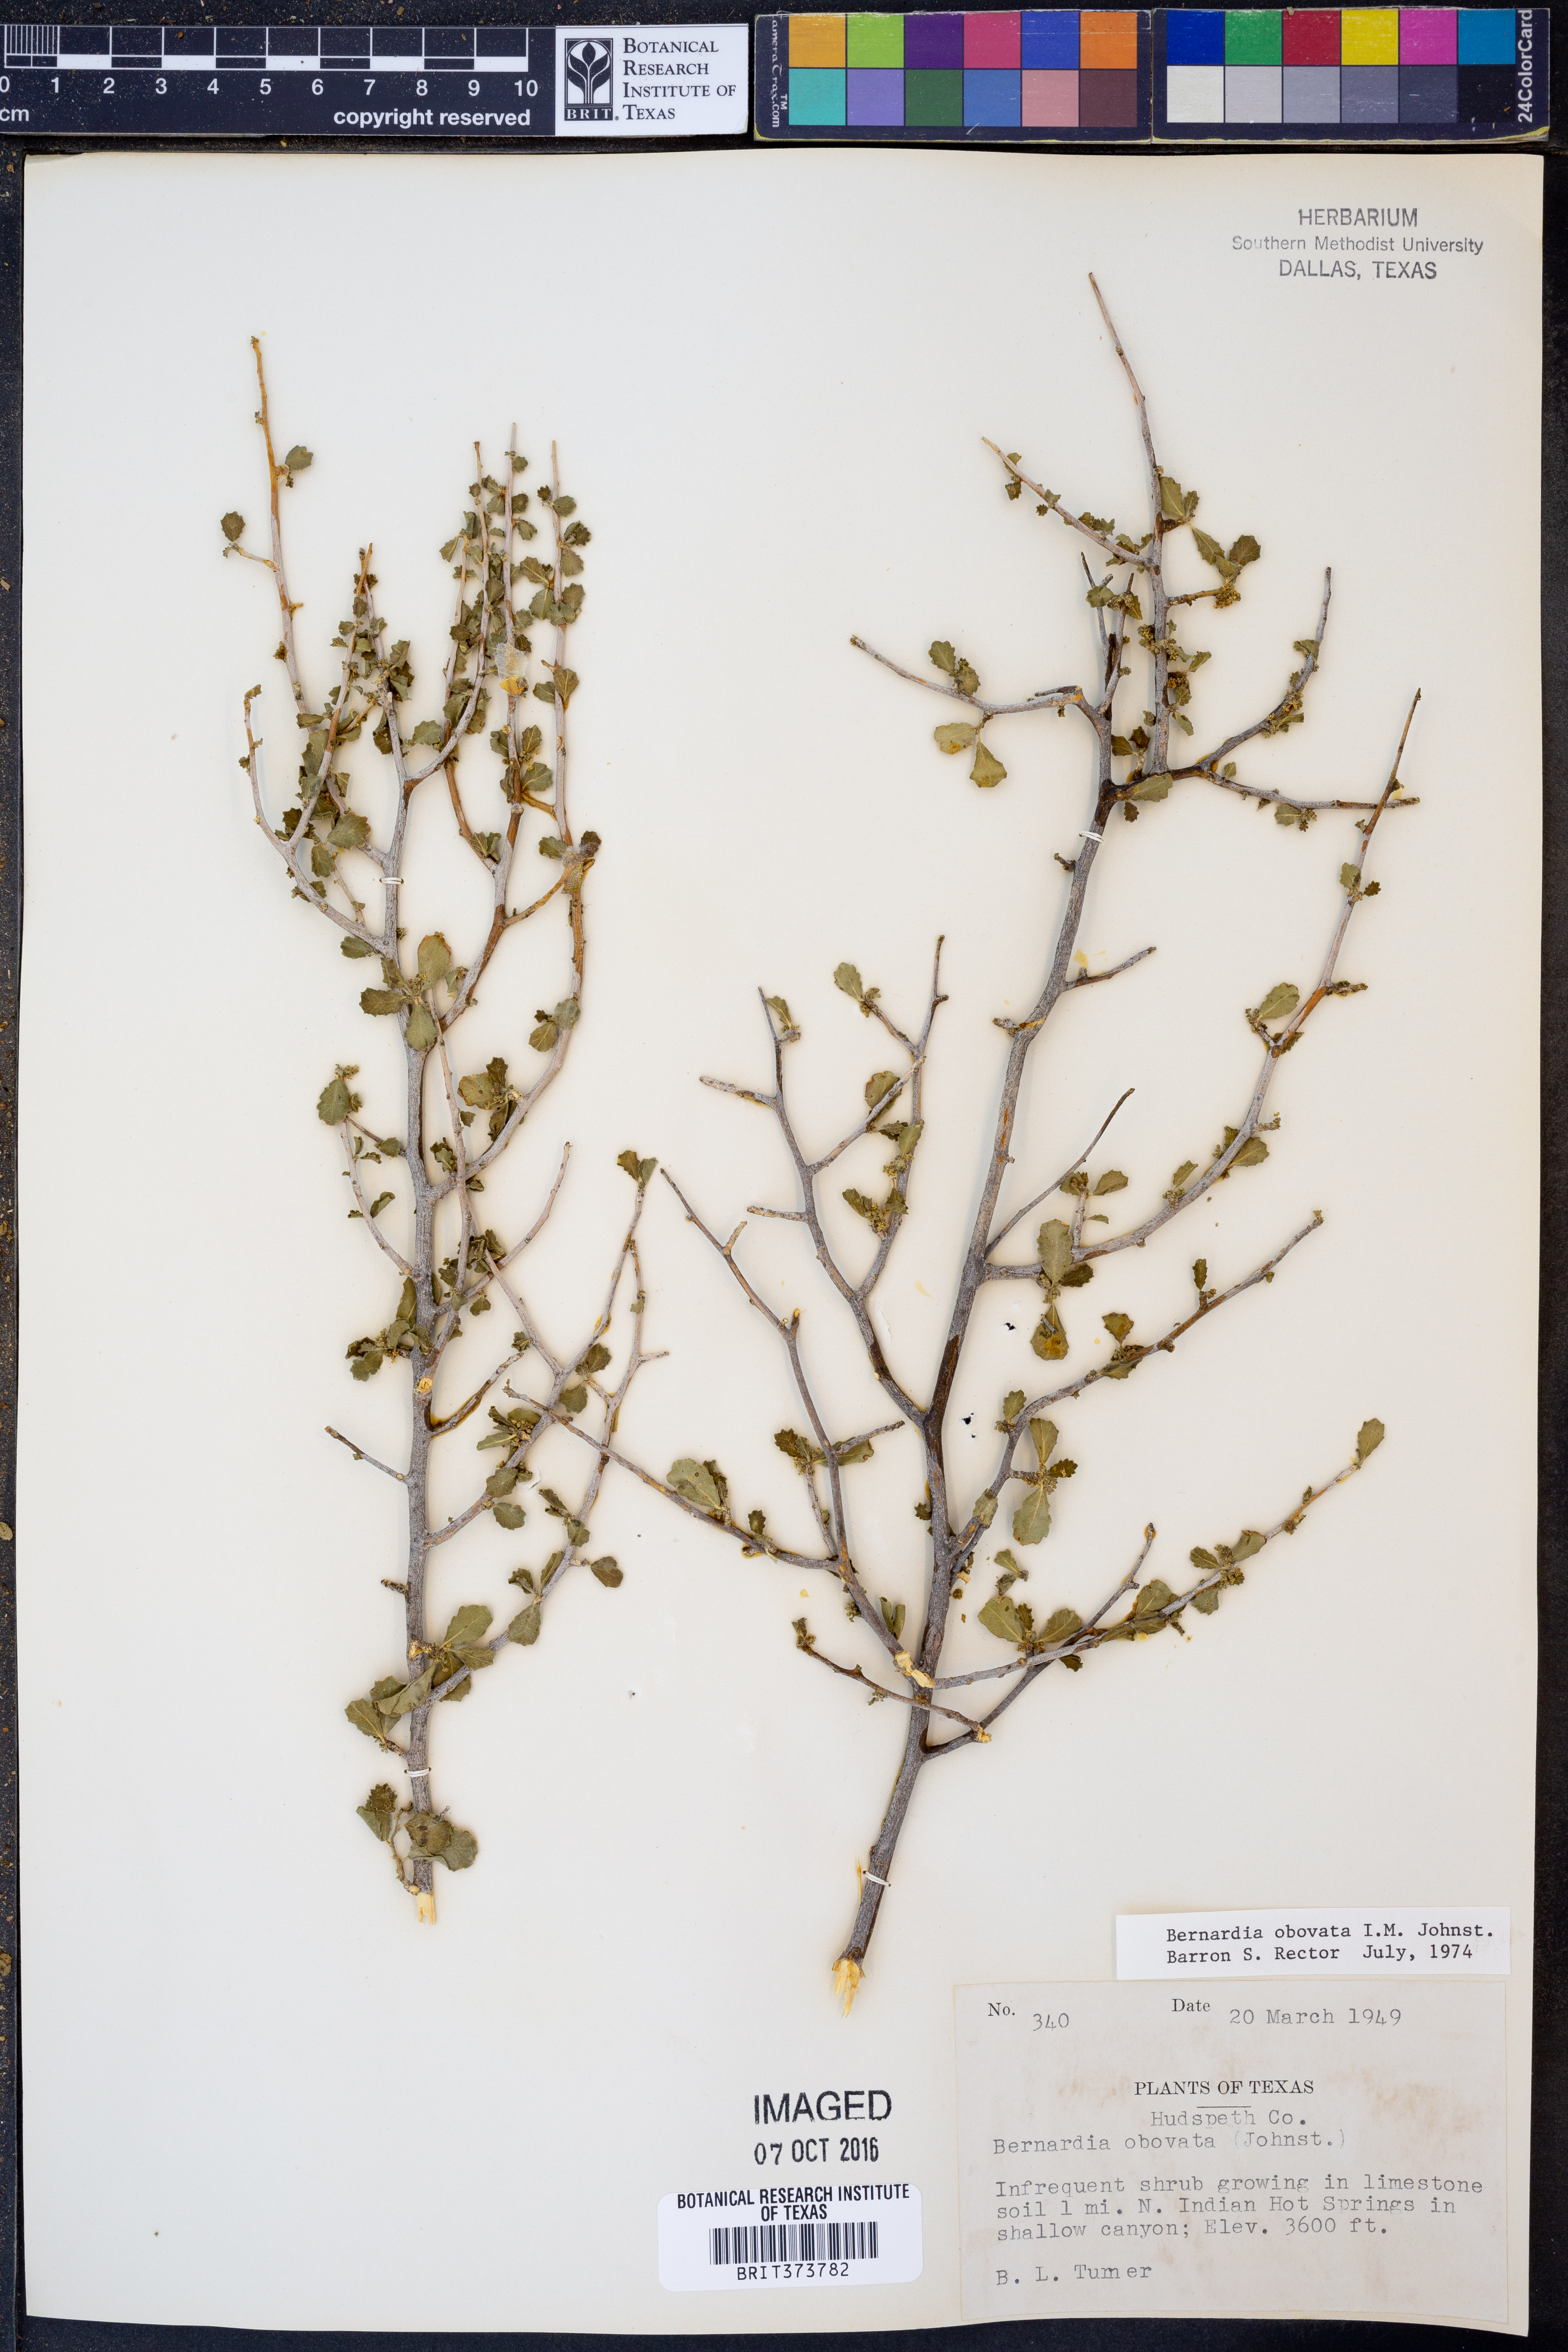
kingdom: Plantae
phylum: Tracheophyta
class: Magnoliopsida
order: Malpighiales
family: Euphorbiaceae
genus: Bernardia
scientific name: Bernardia obovata
